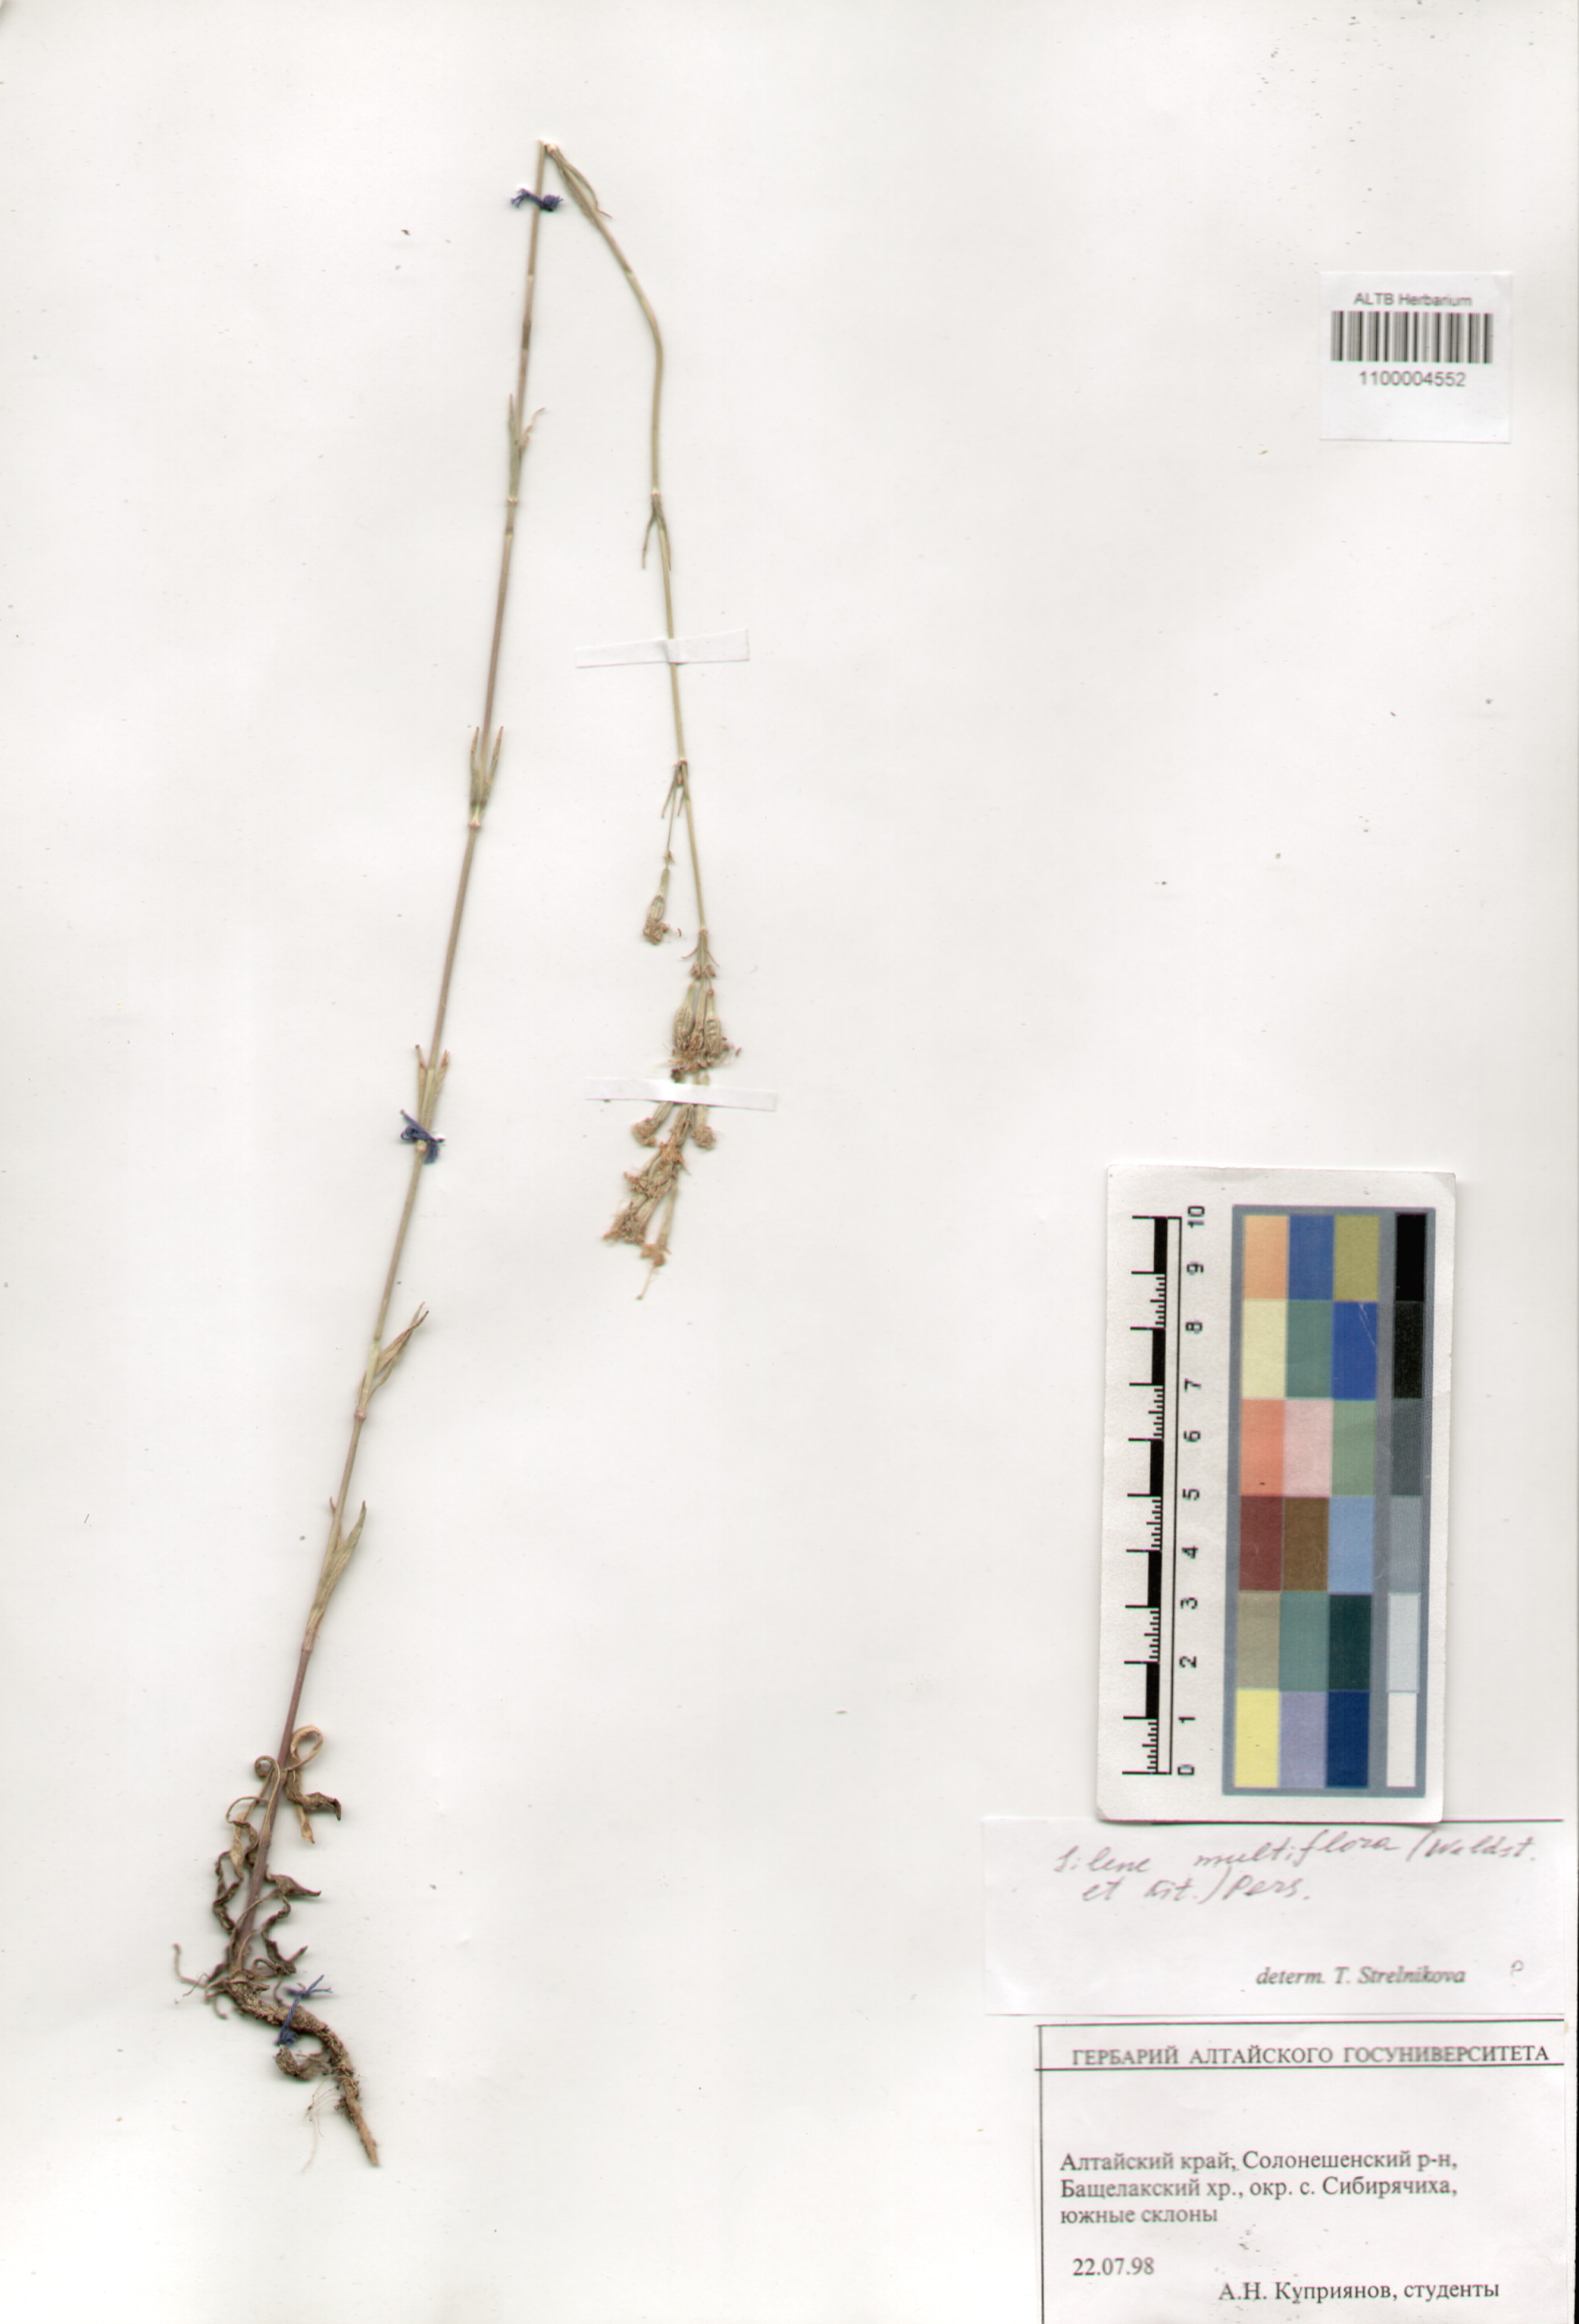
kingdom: Plantae
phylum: Tracheophyta
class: Magnoliopsida
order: Caryophyllales
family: Caryophyllaceae
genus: Silene
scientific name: Silene multiflora
